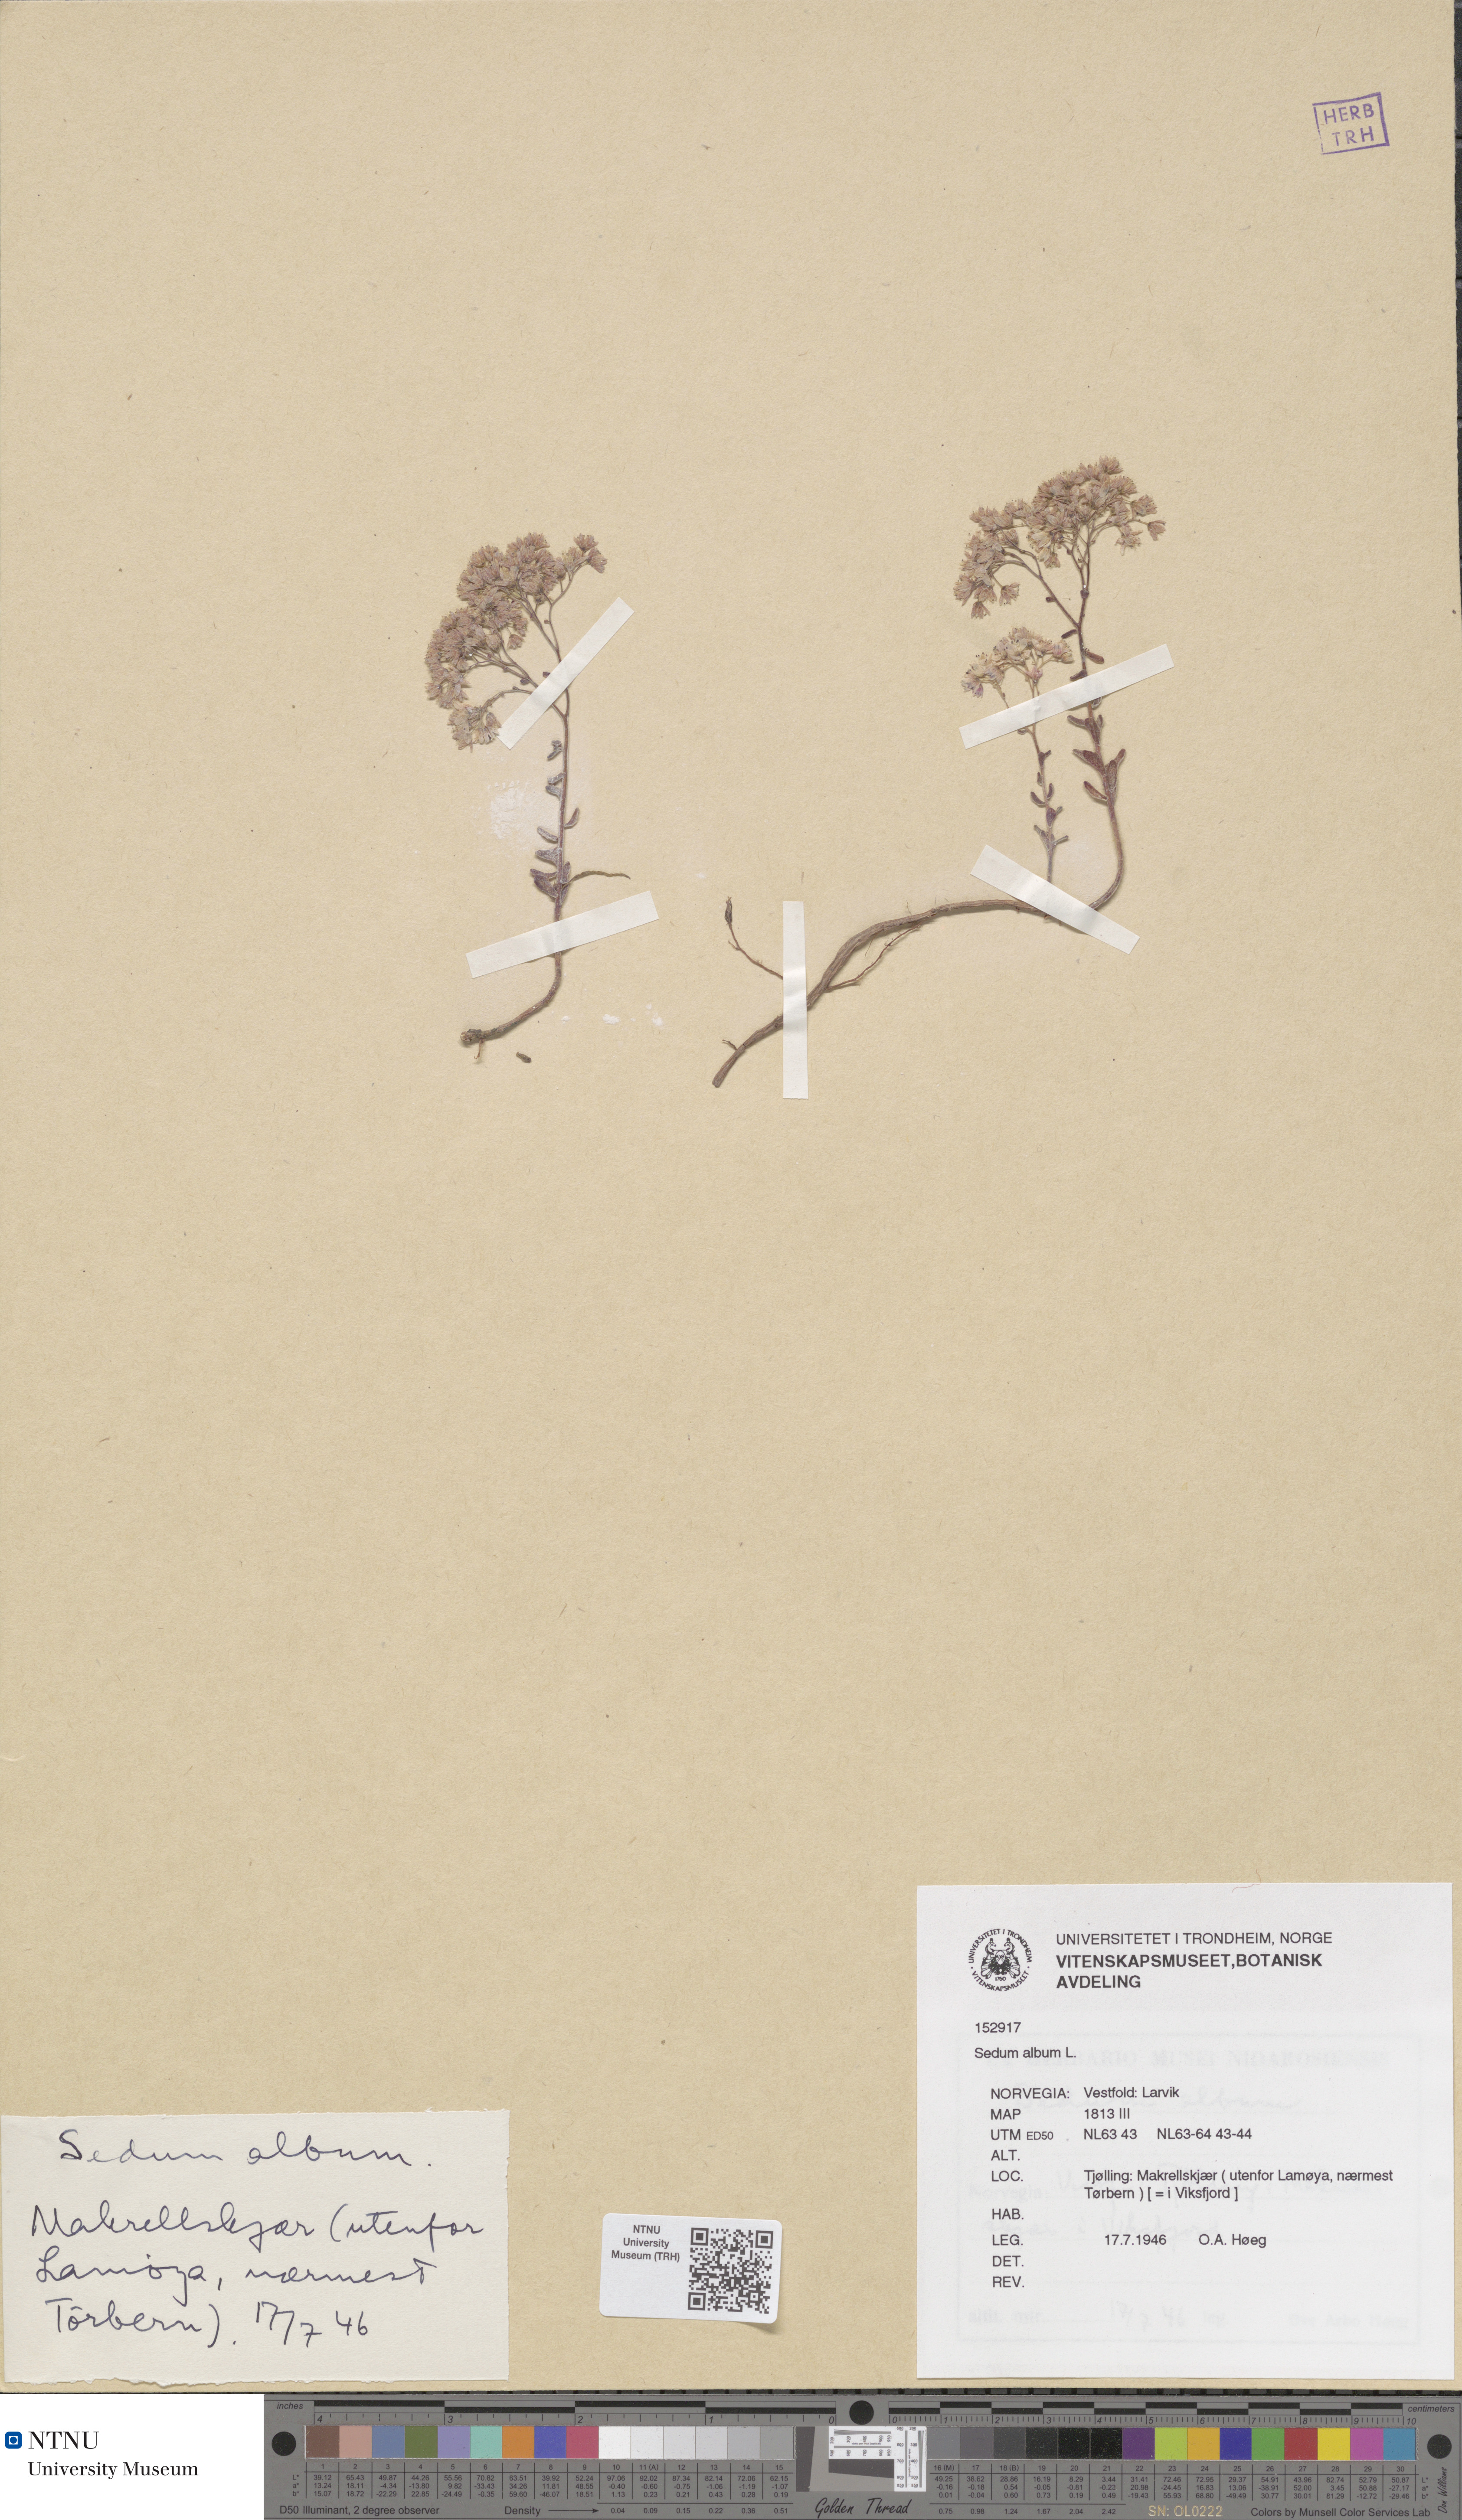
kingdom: Plantae
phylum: Tracheophyta
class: Magnoliopsida
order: Saxifragales
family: Crassulaceae
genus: Sedum
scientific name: Sedum album
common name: White stonecrop
